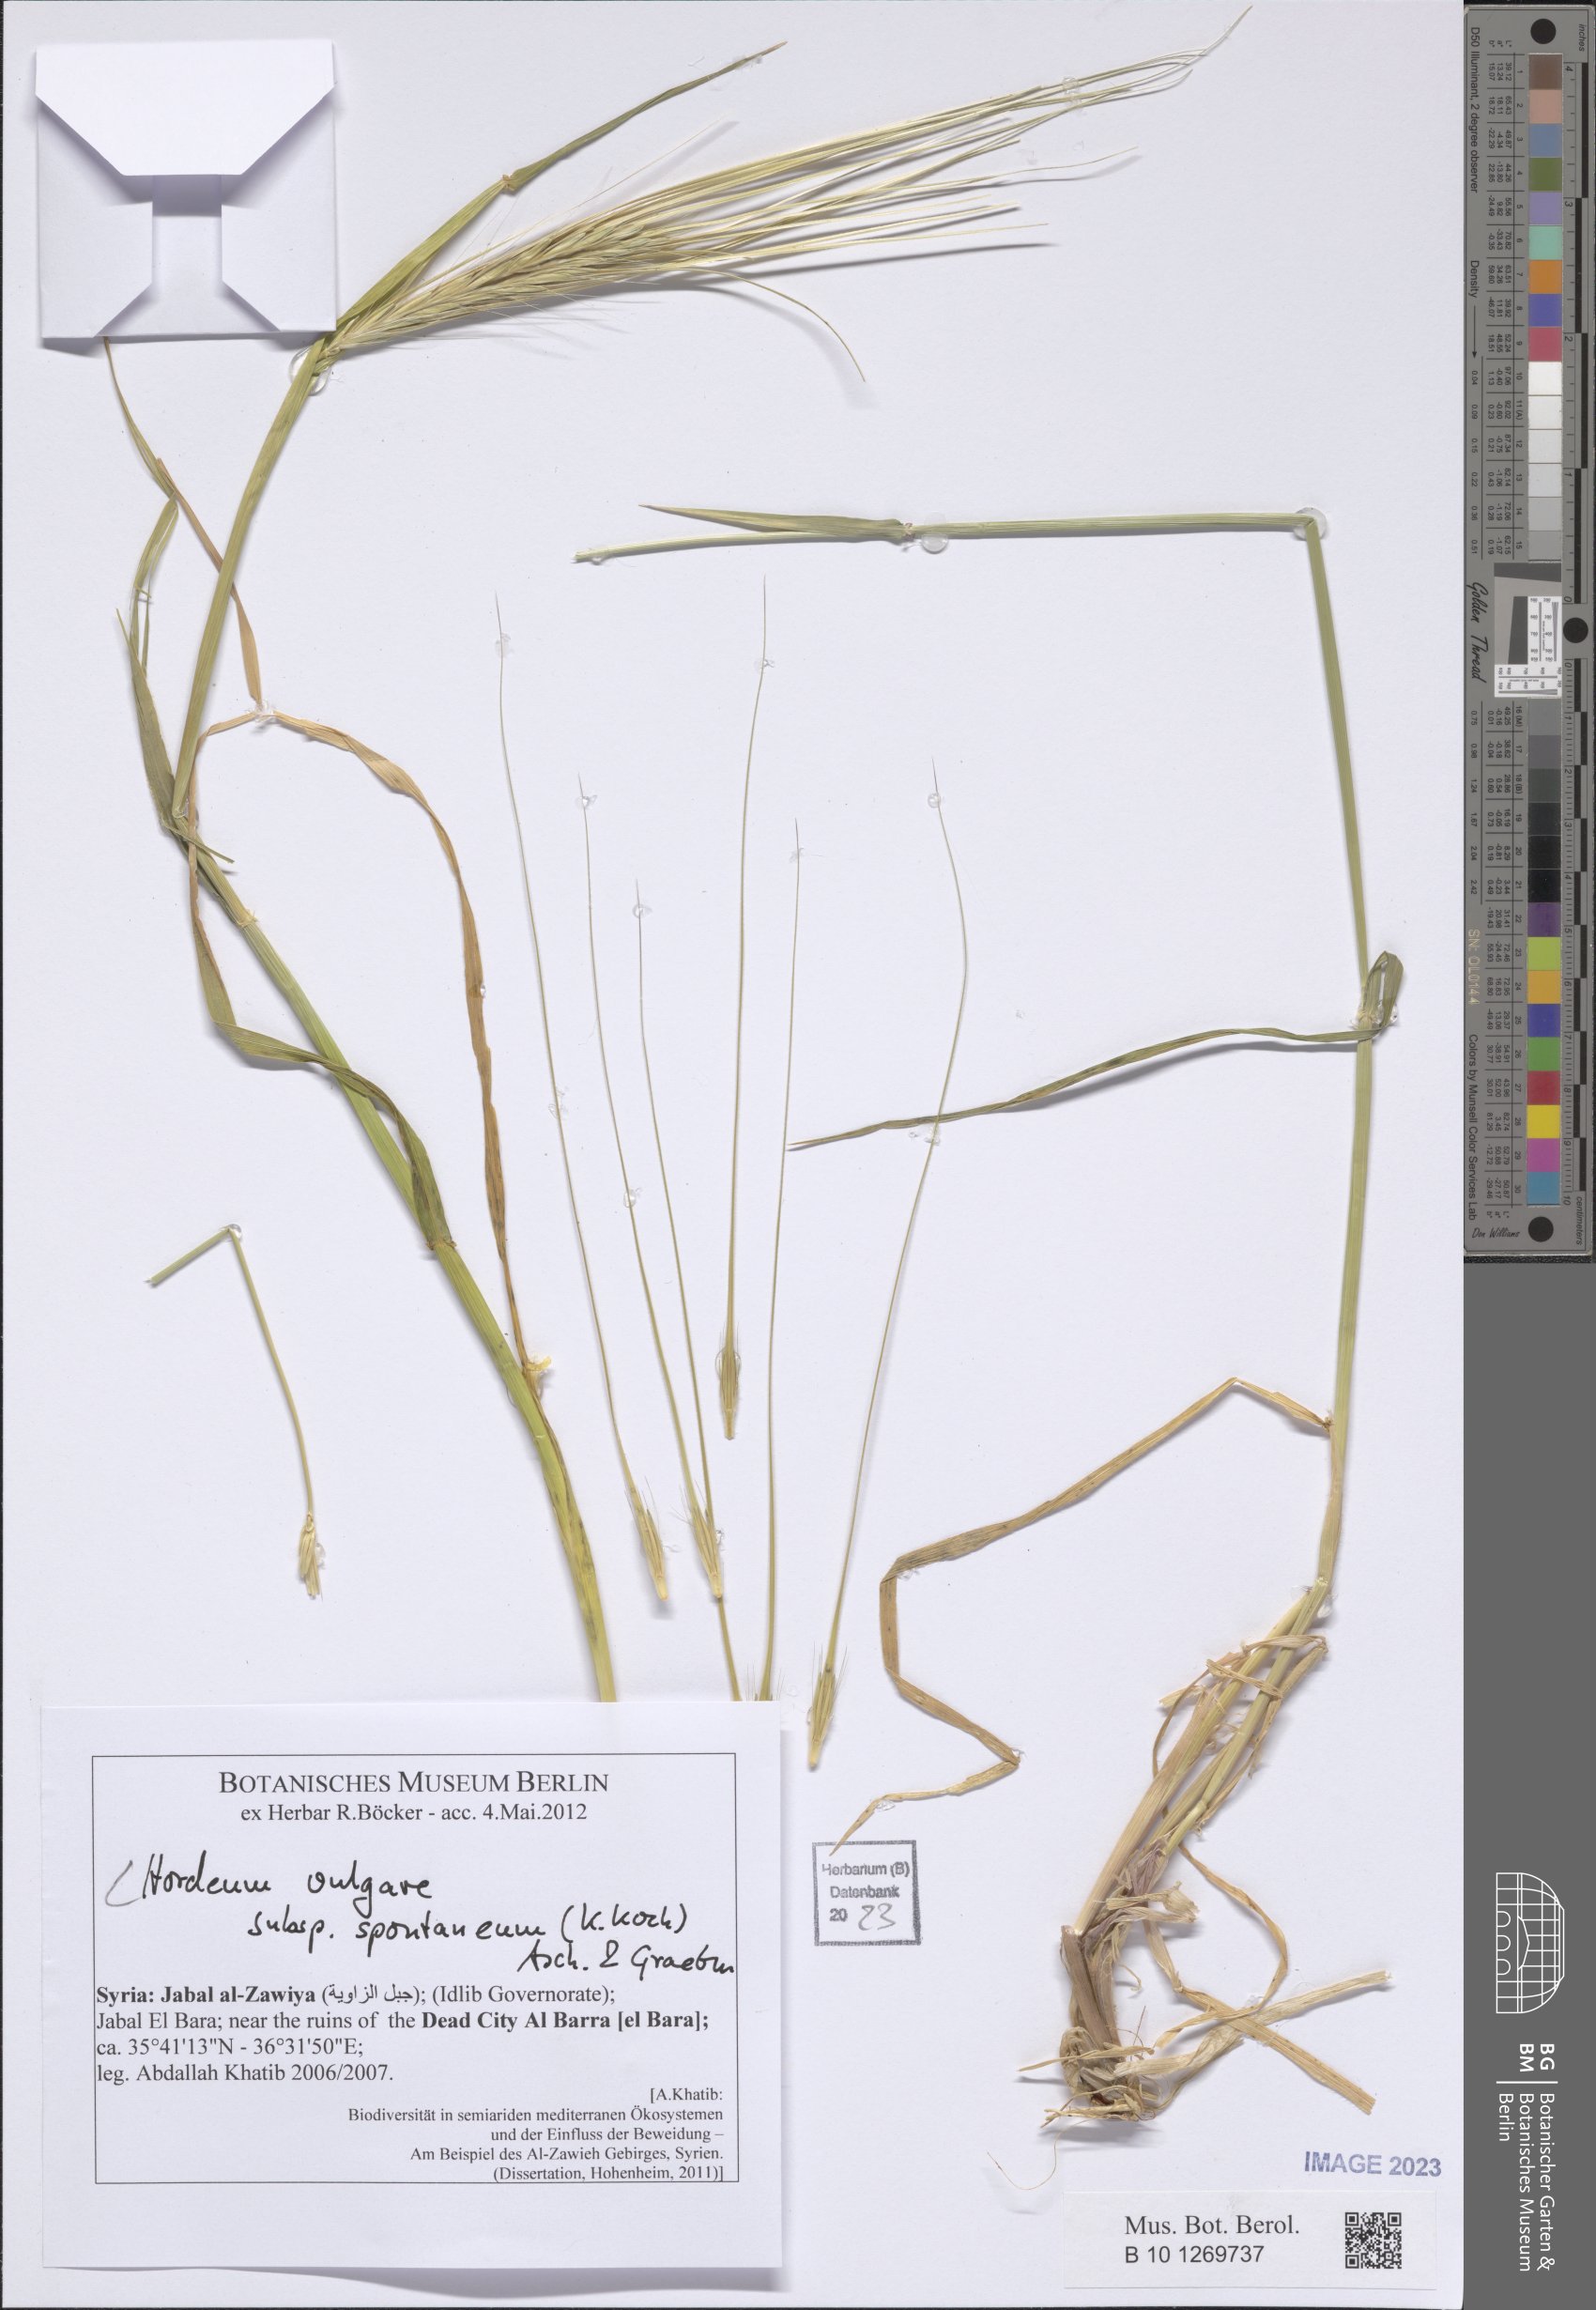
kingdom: Plantae
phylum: Tracheophyta
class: Liliopsida
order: Poales
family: Poaceae
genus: Hordeum
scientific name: Hordeum spontaneum
